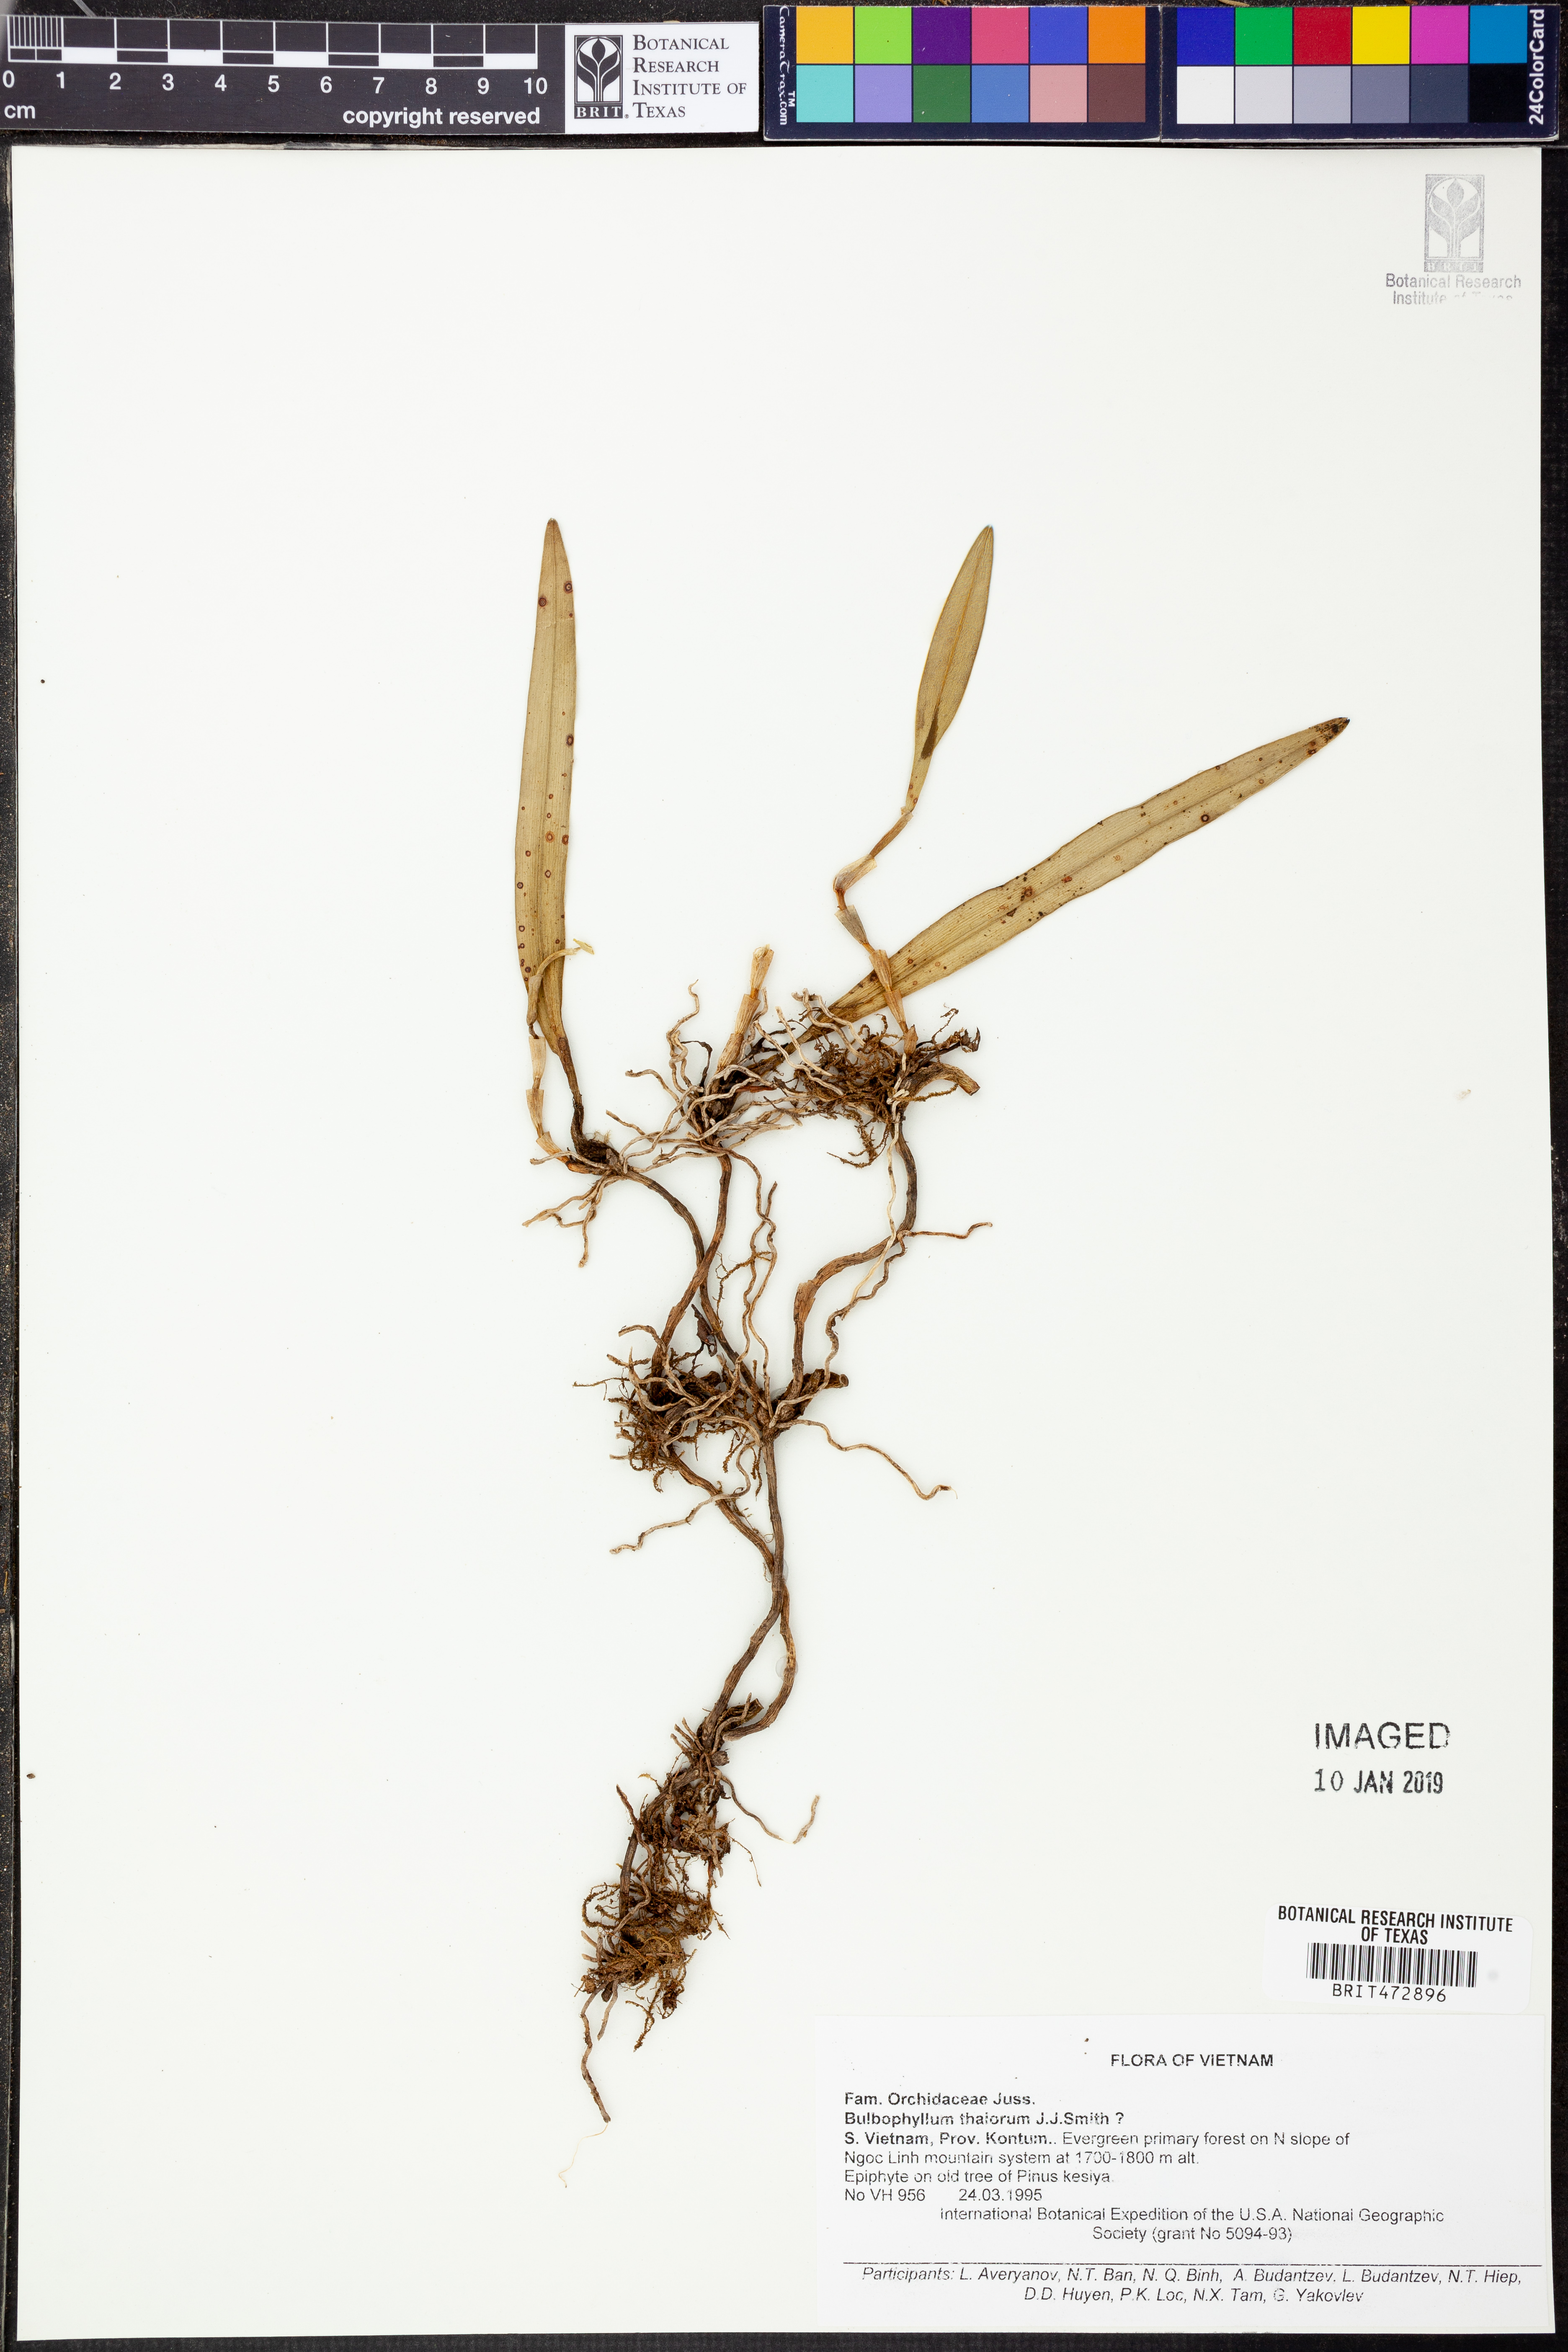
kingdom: Plantae
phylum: Tracheophyta
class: Liliopsida
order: Asparagales
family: Orchidaceae
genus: Bulbophyllum
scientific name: Bulbophyllum thaiorum
